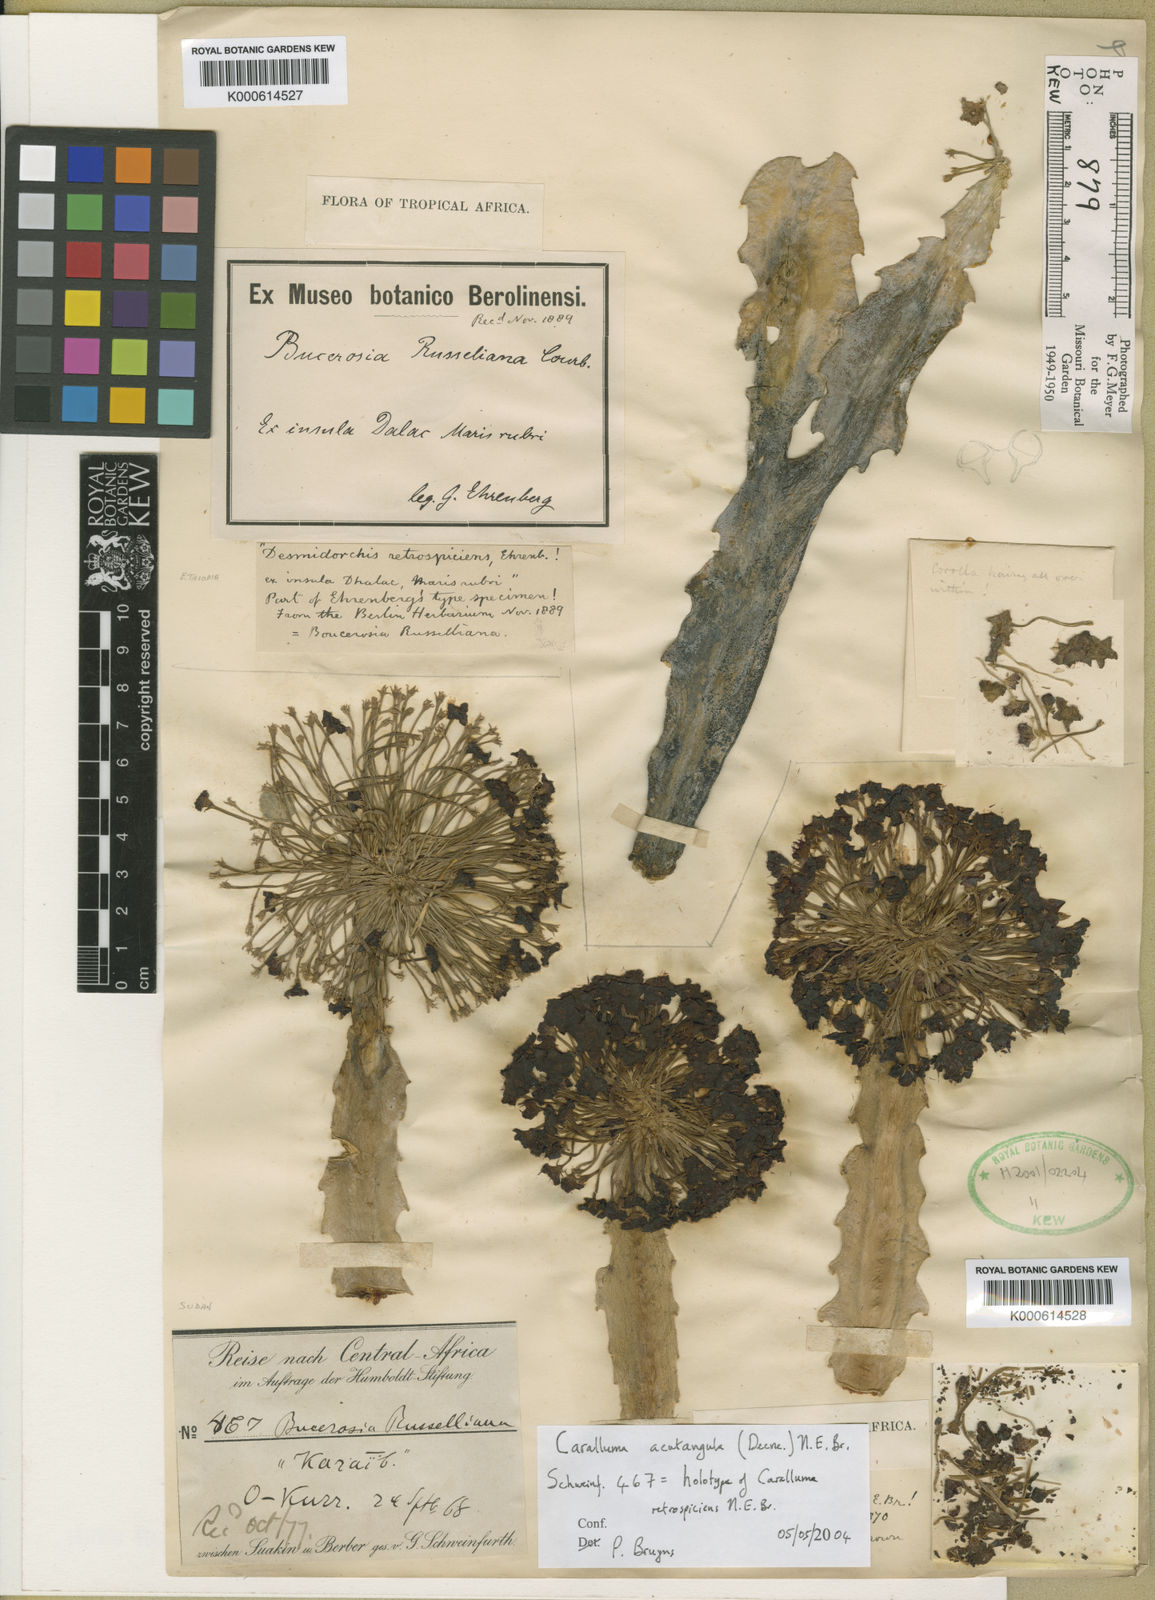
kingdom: Plantae
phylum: Tracheophyta
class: Magnoliopsida
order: Gentianales
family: Apocynaceae
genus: Ceropegia
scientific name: Ceropegia retrospiciens
